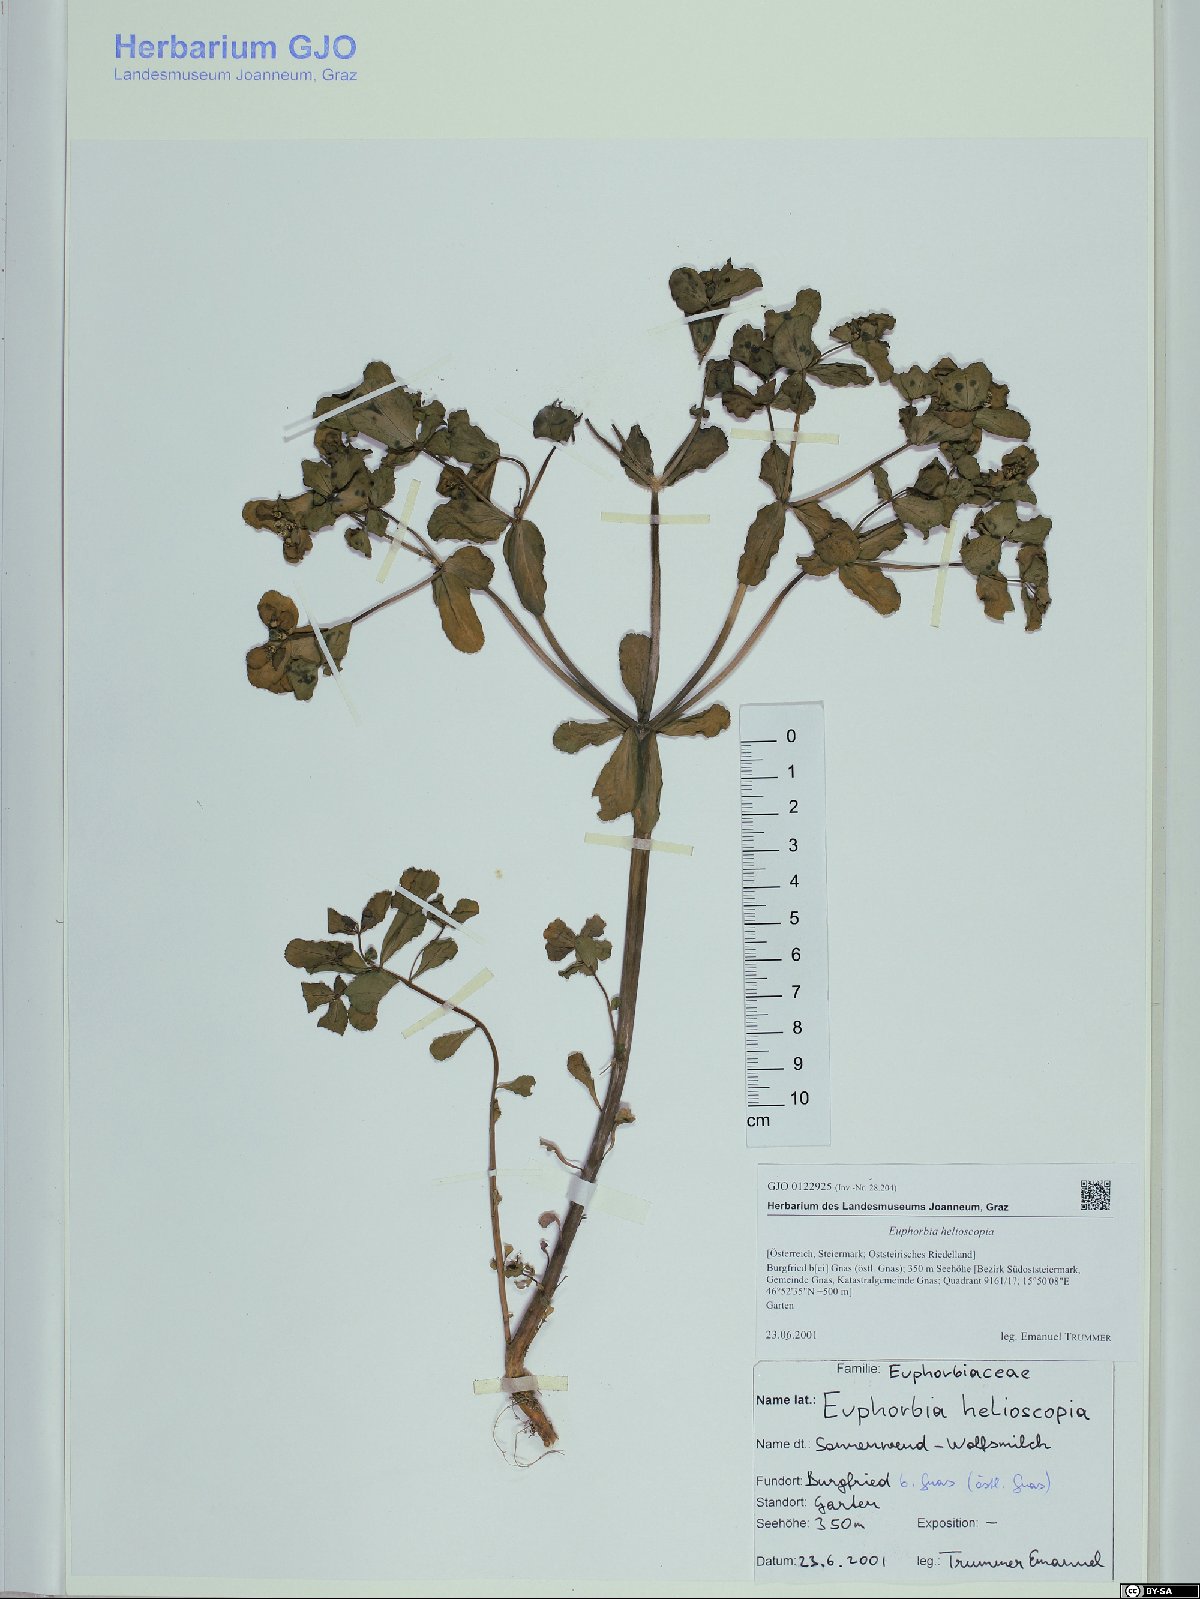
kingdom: Plantae
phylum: Tracheophyta
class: Magnoliopsida
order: Malpighiales
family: Euphorbiaceae
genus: Euphorbia
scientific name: Euphorbia helioscopia
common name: Sun spurge
